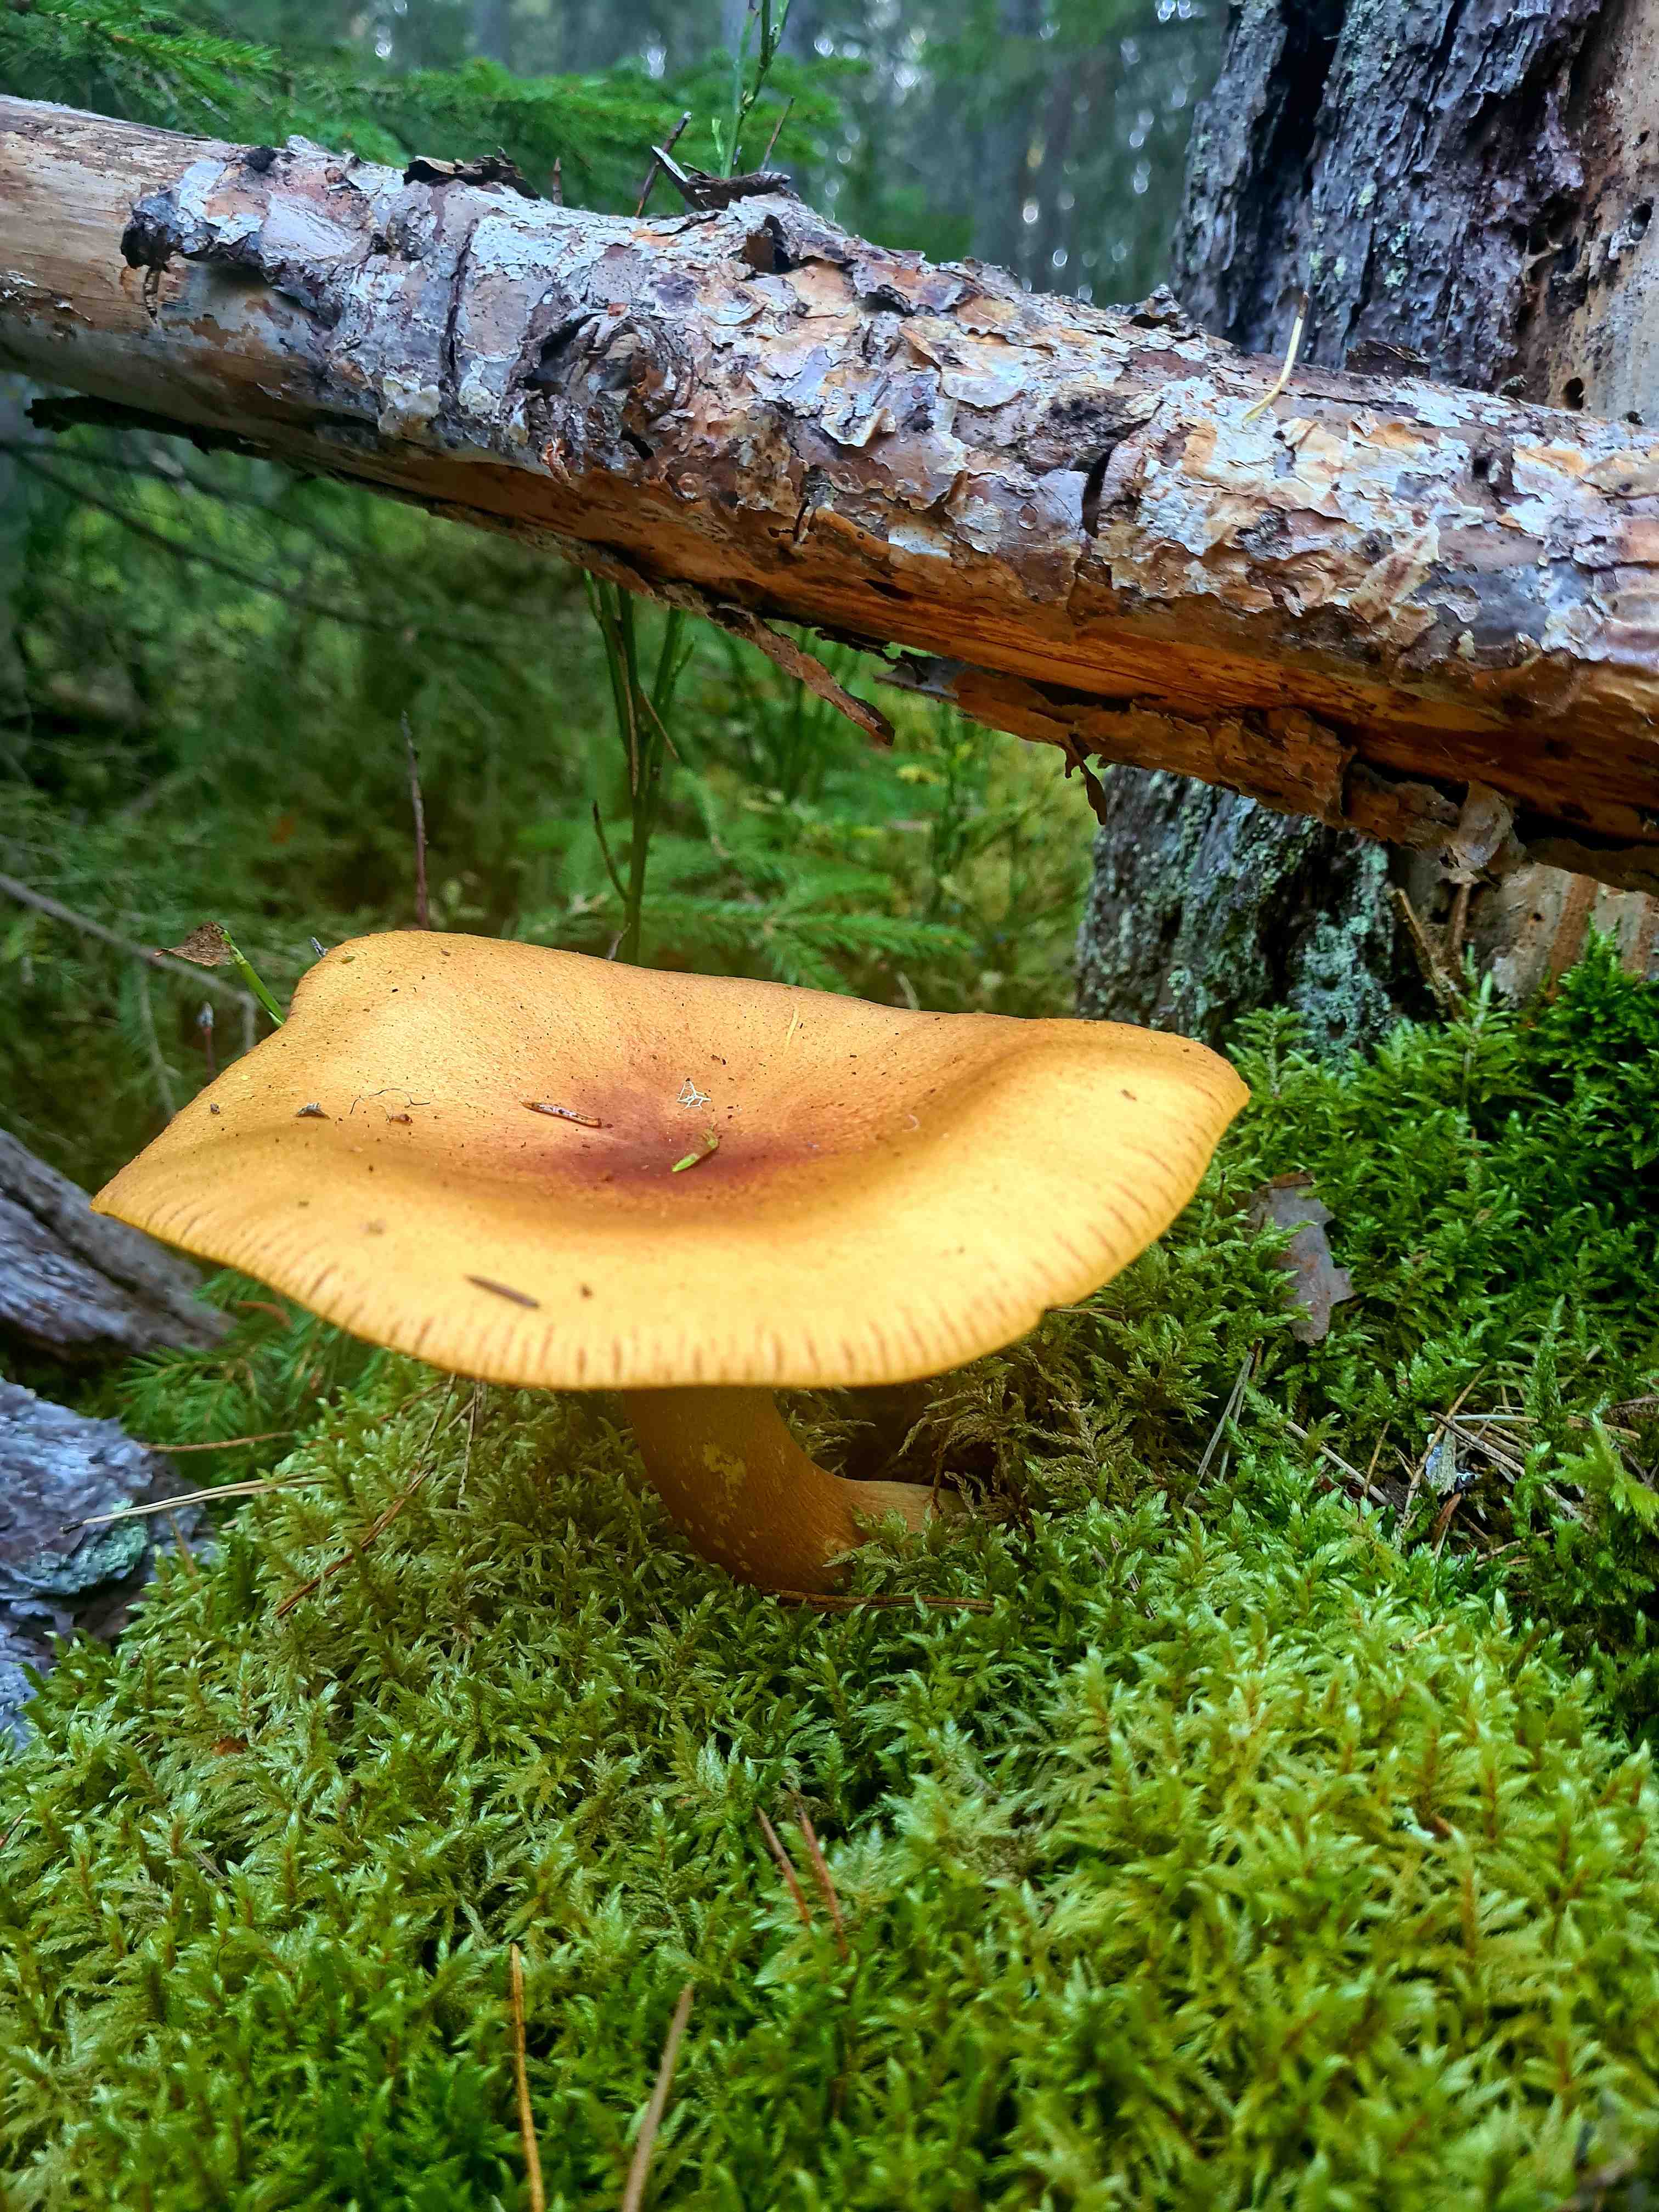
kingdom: Fungi
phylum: Basidiomycota
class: Agaricomycetes
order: Agaricales
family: Tricholomataceae
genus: Tricholomopsis
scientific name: Tricholomopsis rutilans
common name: purpur-væbnerhat
